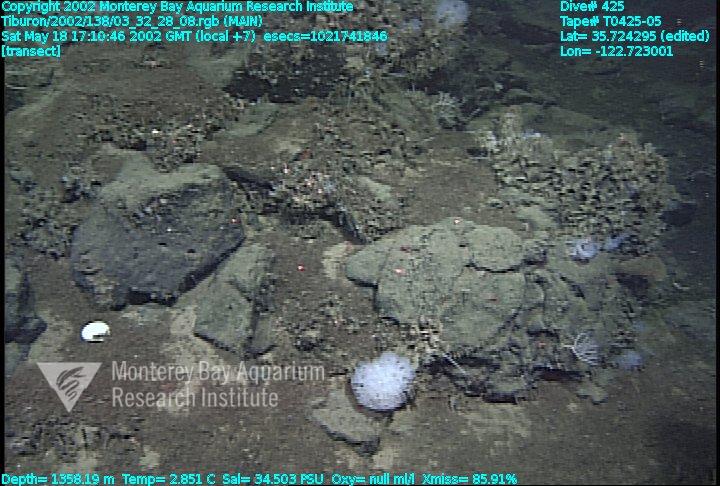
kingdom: Animalia
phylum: Porifera
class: Demospongiae
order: Poecilosclerida
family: Cladorhizidae
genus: Asbestopluma
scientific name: Asbestopluma monticola
